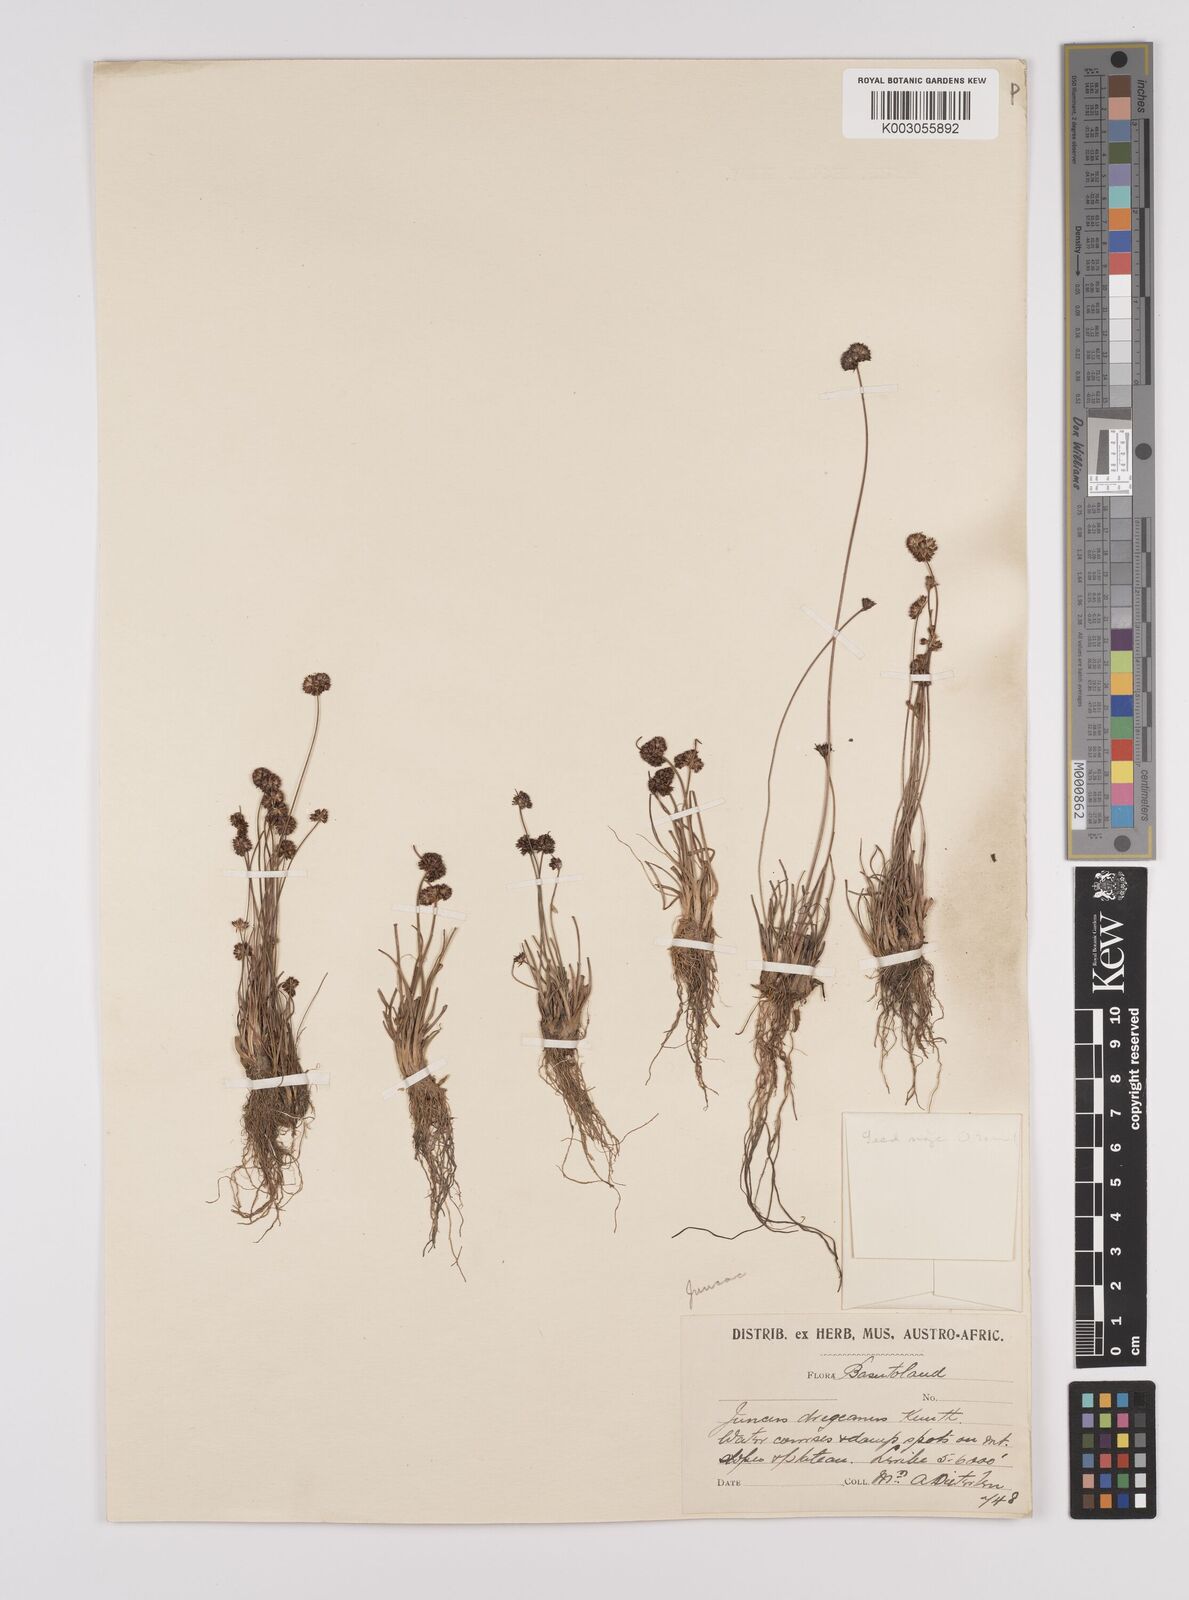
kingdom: Plantae
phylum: Tracheophyta
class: Liliopsida
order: Poales
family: Juncaceae
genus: Juncus
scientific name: Juncus dregeanus
